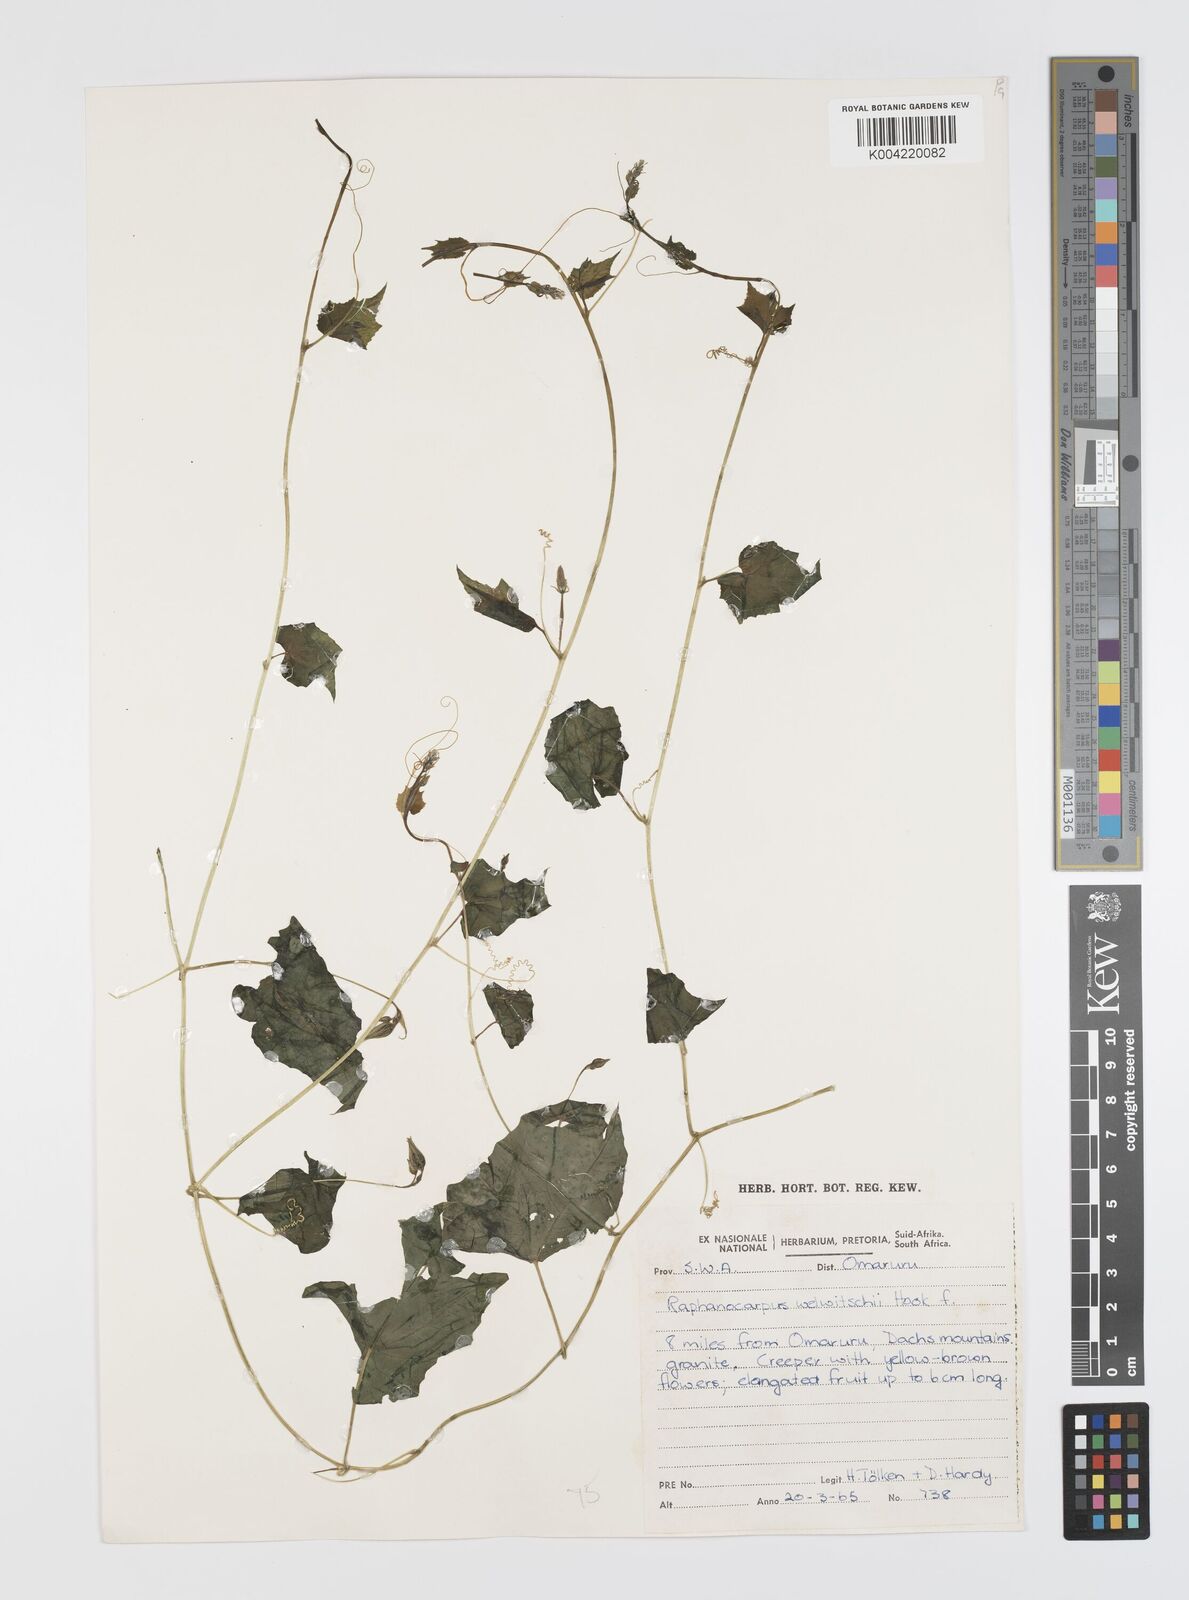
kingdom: Plantae
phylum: Tracheophyta
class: Magnoliopsida
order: Cucurbitales
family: Cucurbitaceae
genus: Momordica
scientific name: Momordica
